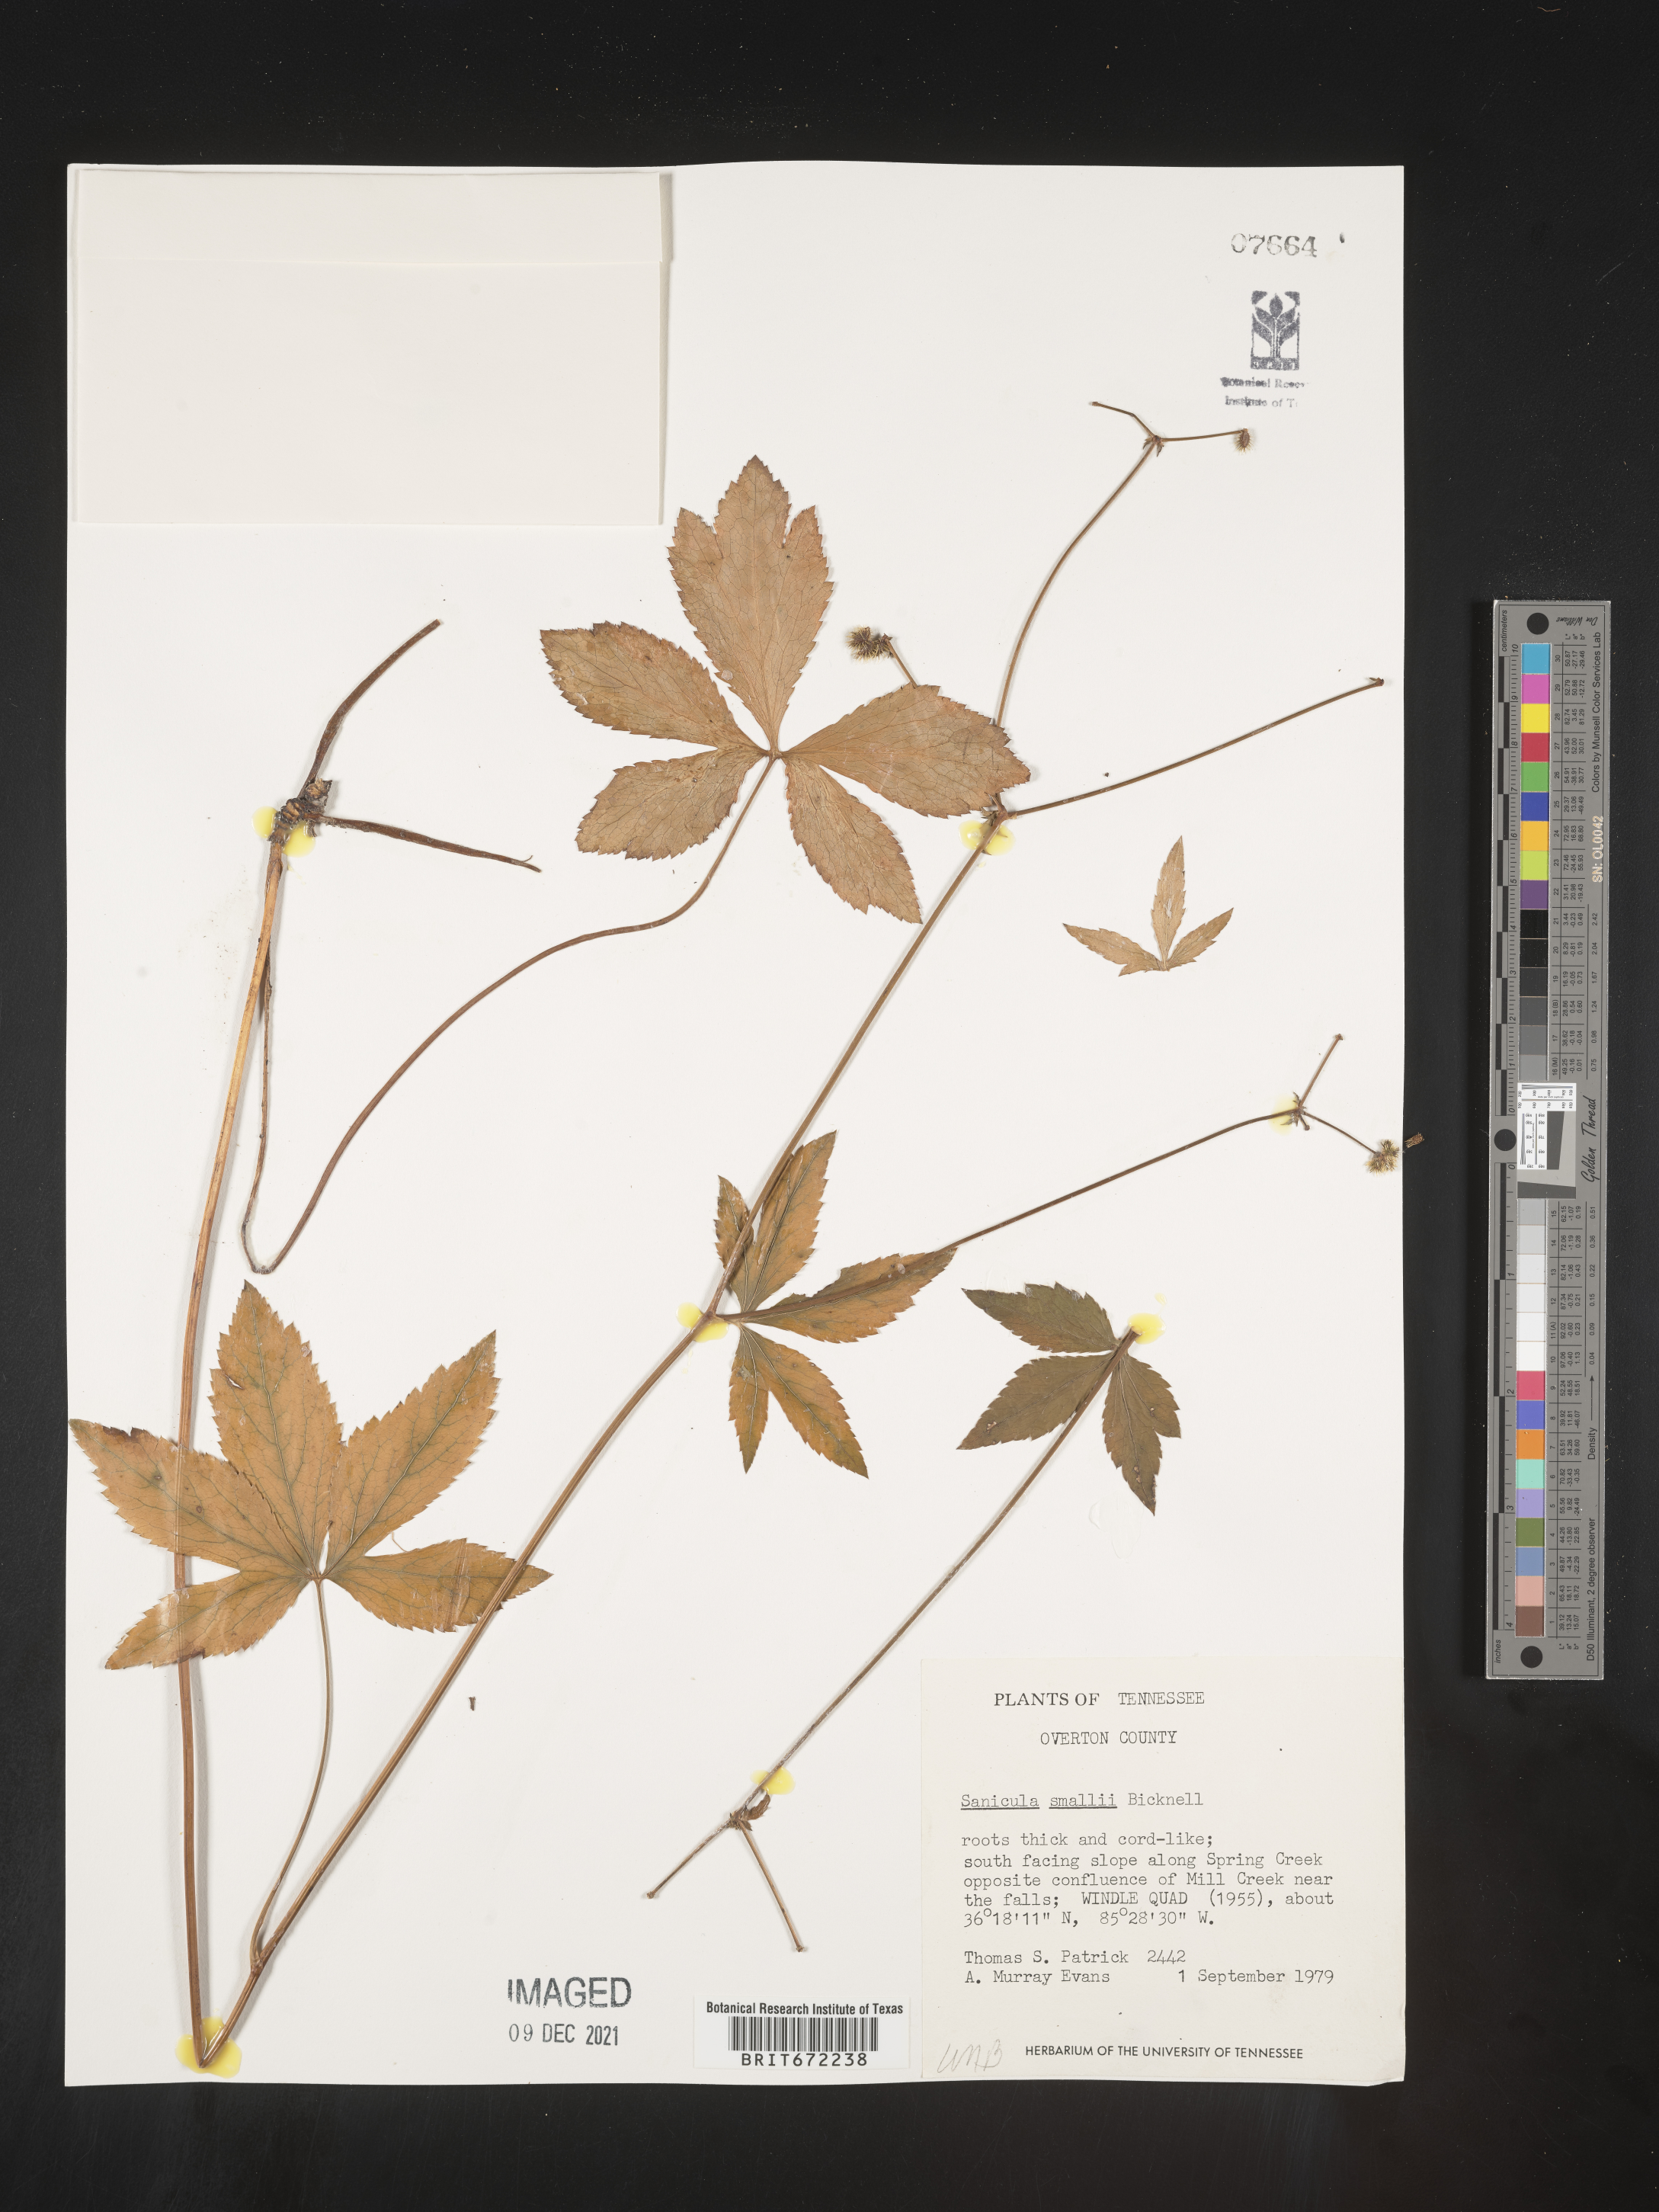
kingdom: Plantae
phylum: Tracheophyta
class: Magnoliopsida
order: Apiales
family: Apiaceae
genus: Sanicula
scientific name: Sanicula
